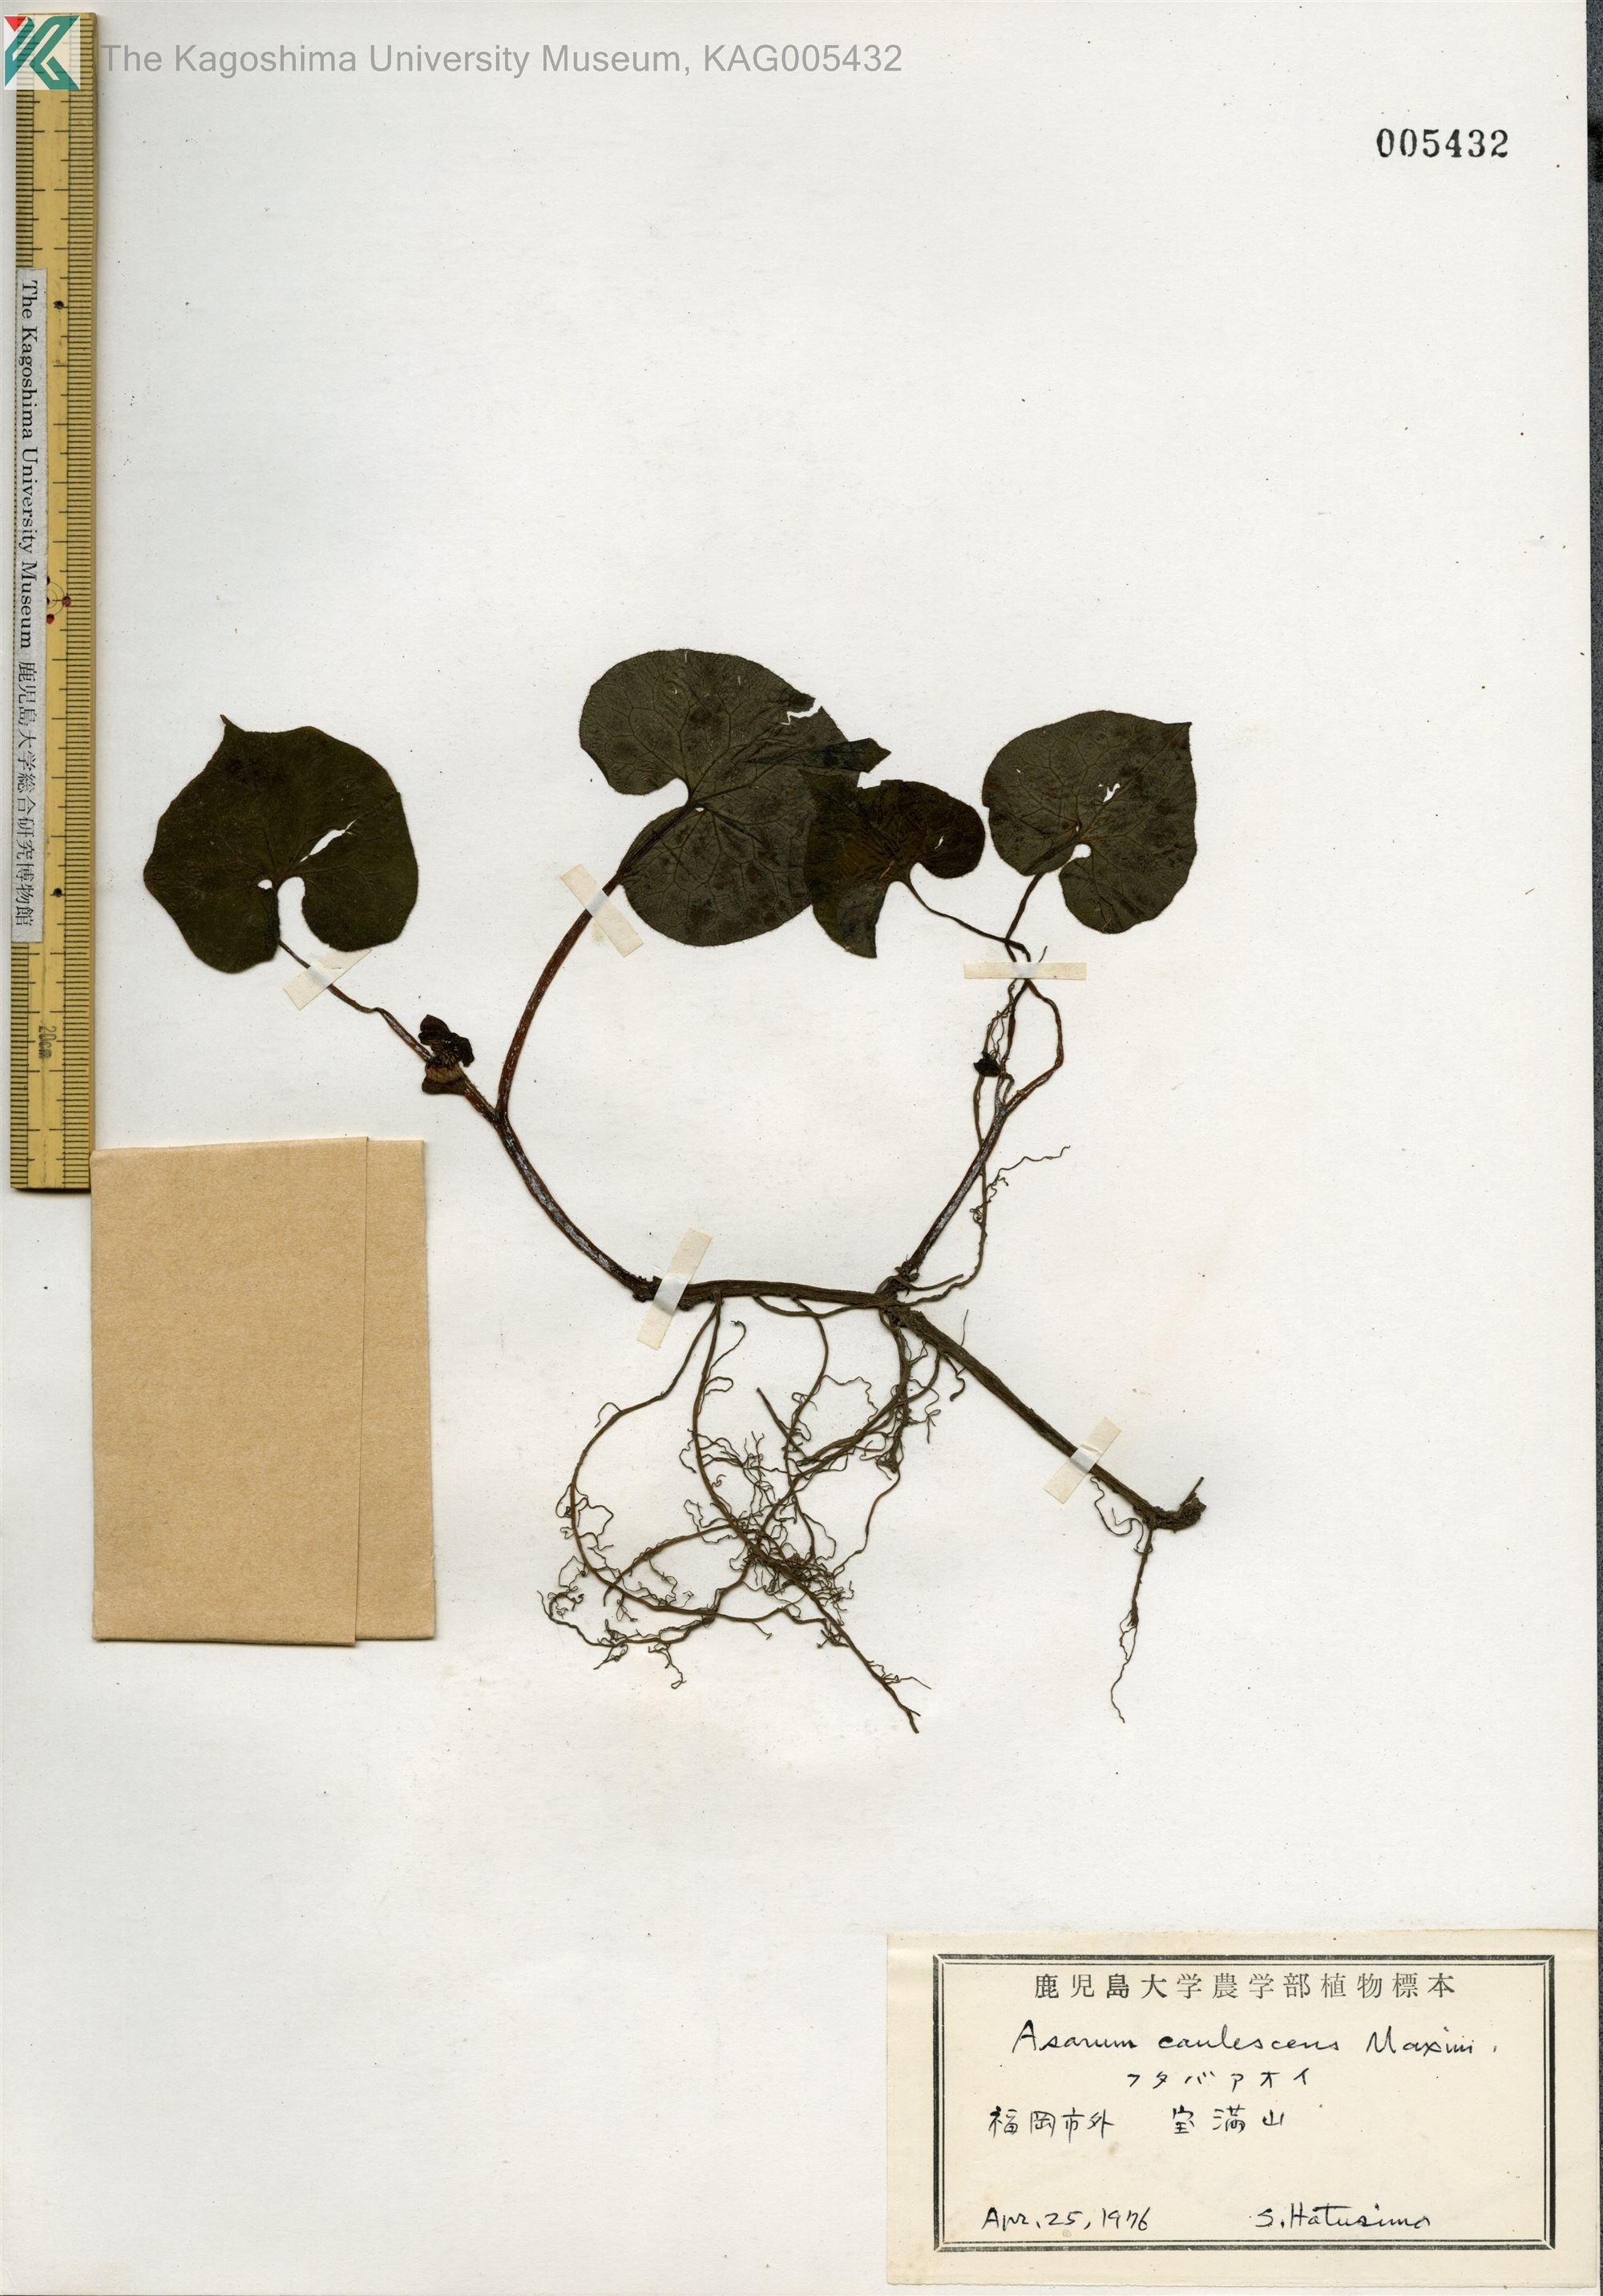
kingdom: Plantae
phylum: Tracheophyta
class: Magnoliopsida
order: Piperales
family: Aristolochiaceae
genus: Asarum
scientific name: Asarum caulescens
